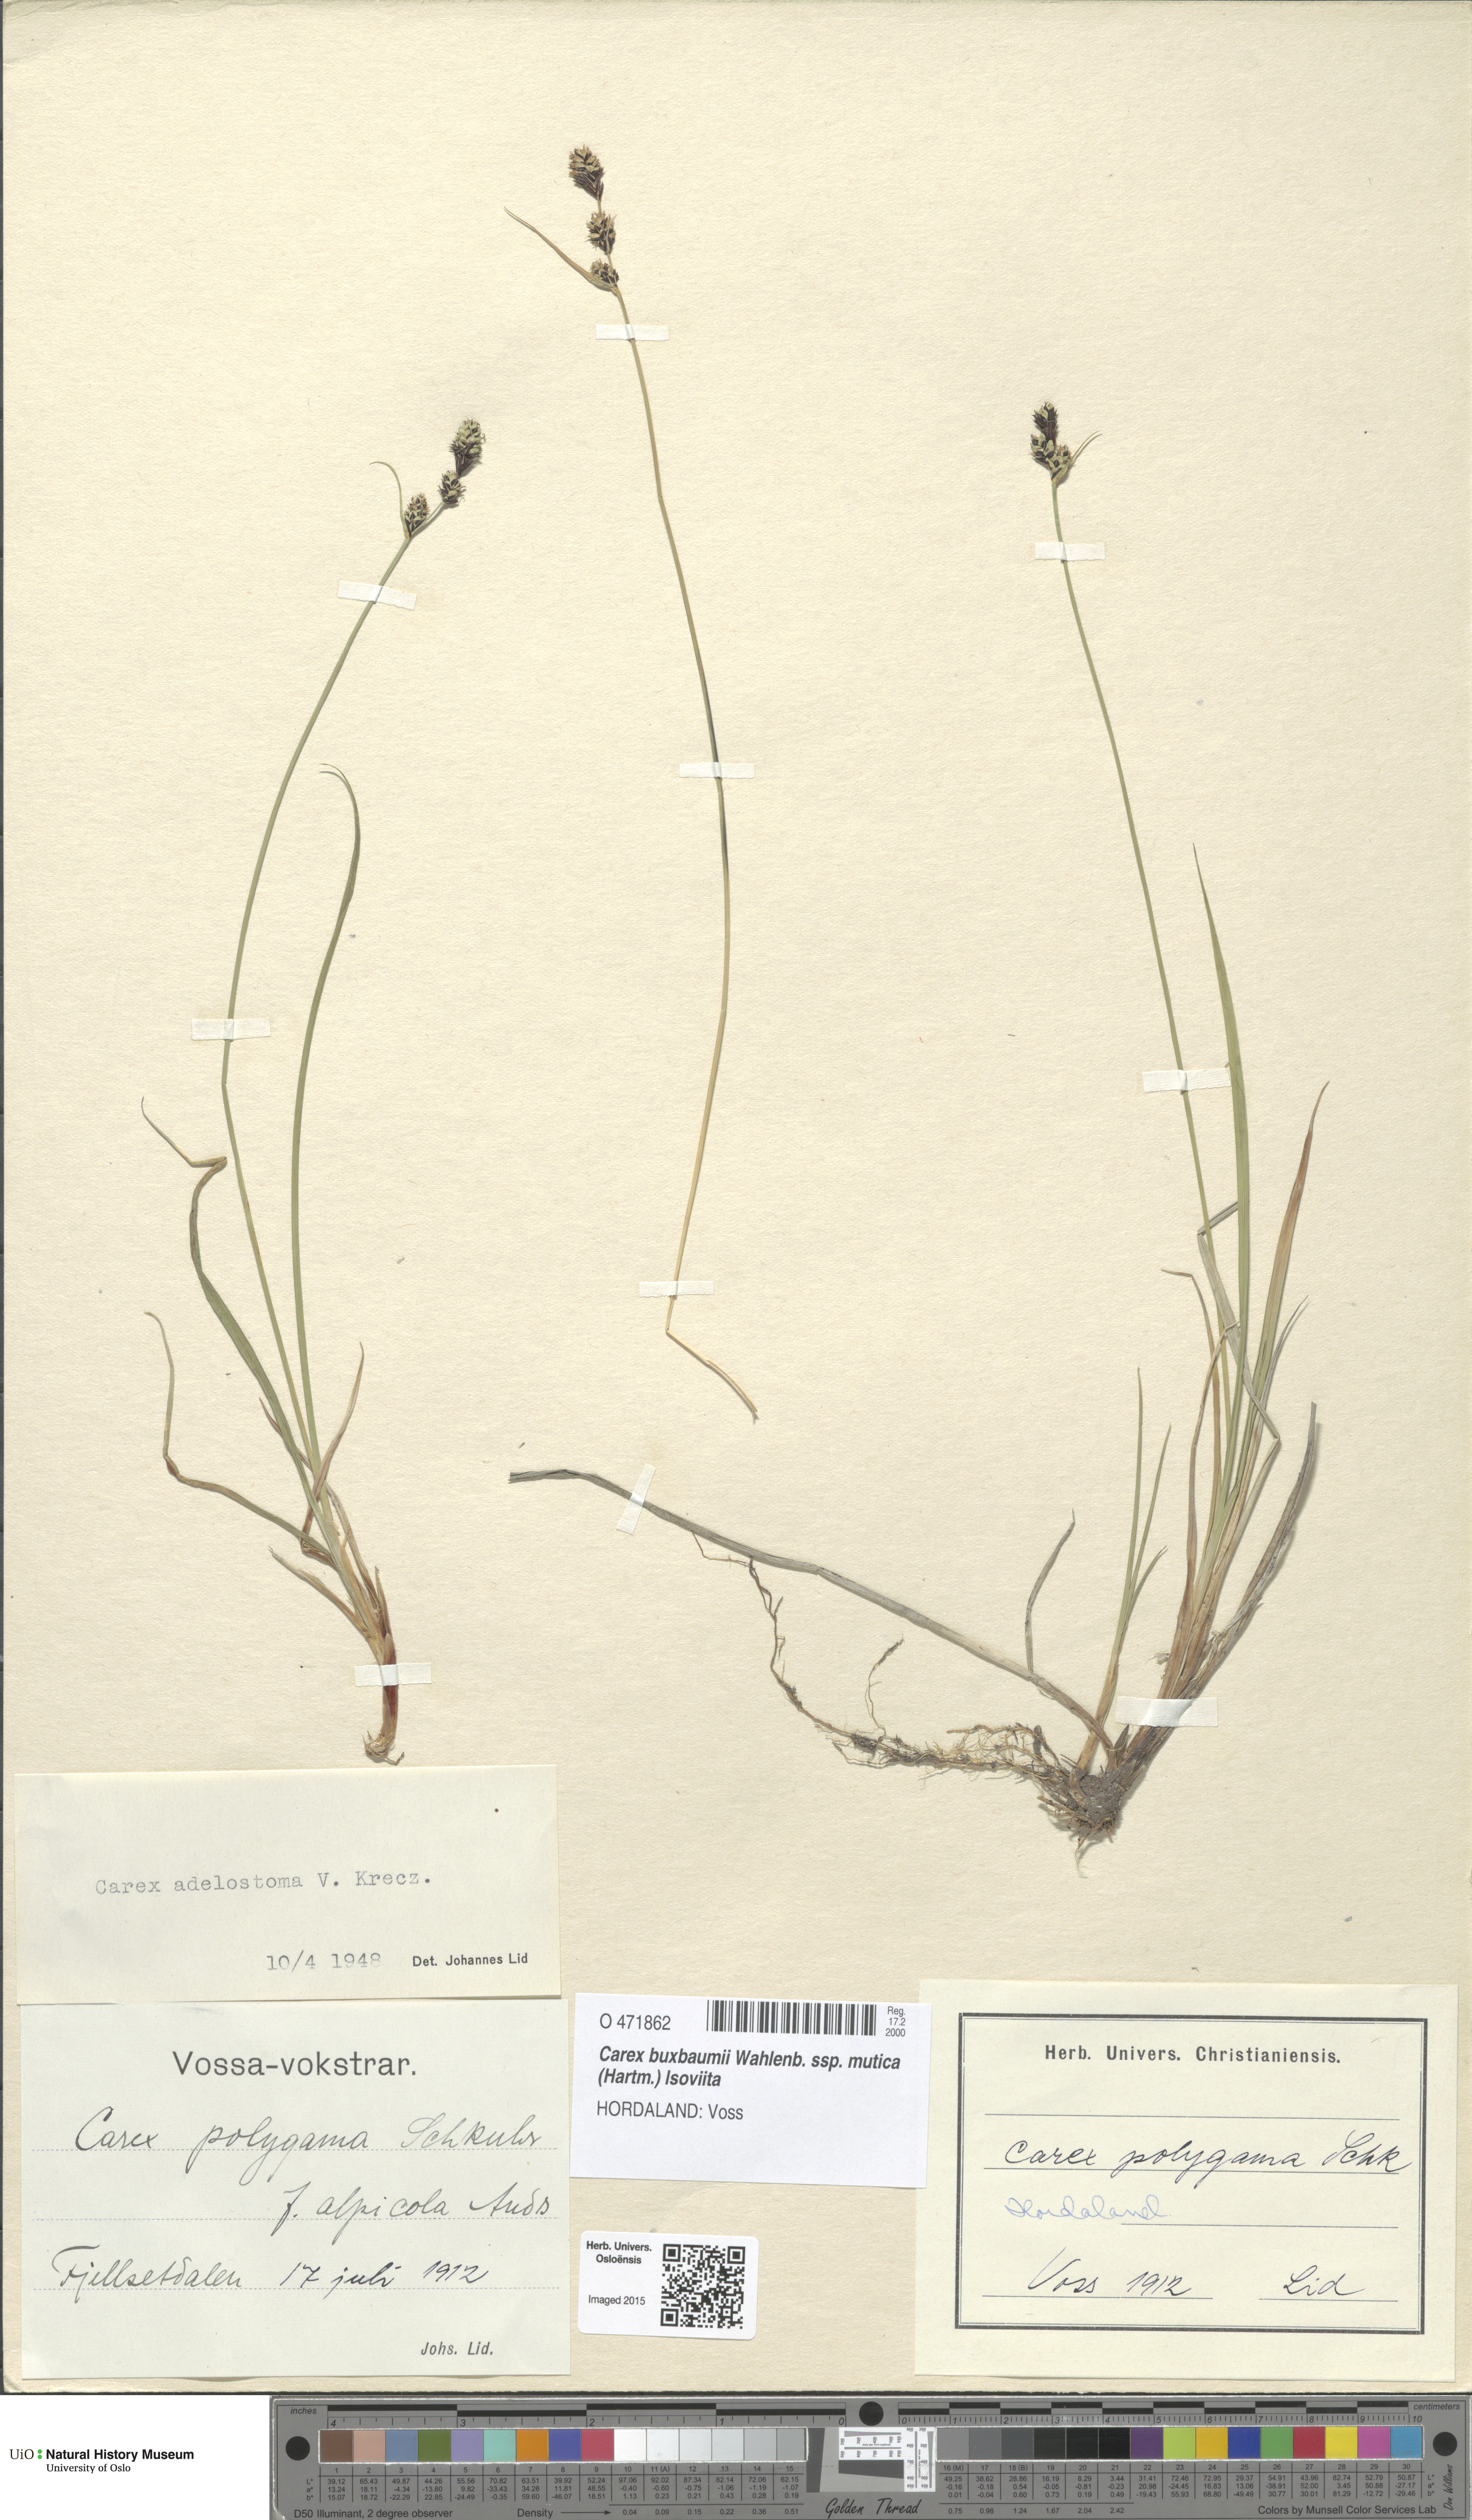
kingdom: Plantae
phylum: Tracheophyta
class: Liliopsida
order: Poales
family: Cyperaceae
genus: Carex
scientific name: Carex adelostoma
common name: Circumpolar sedge
